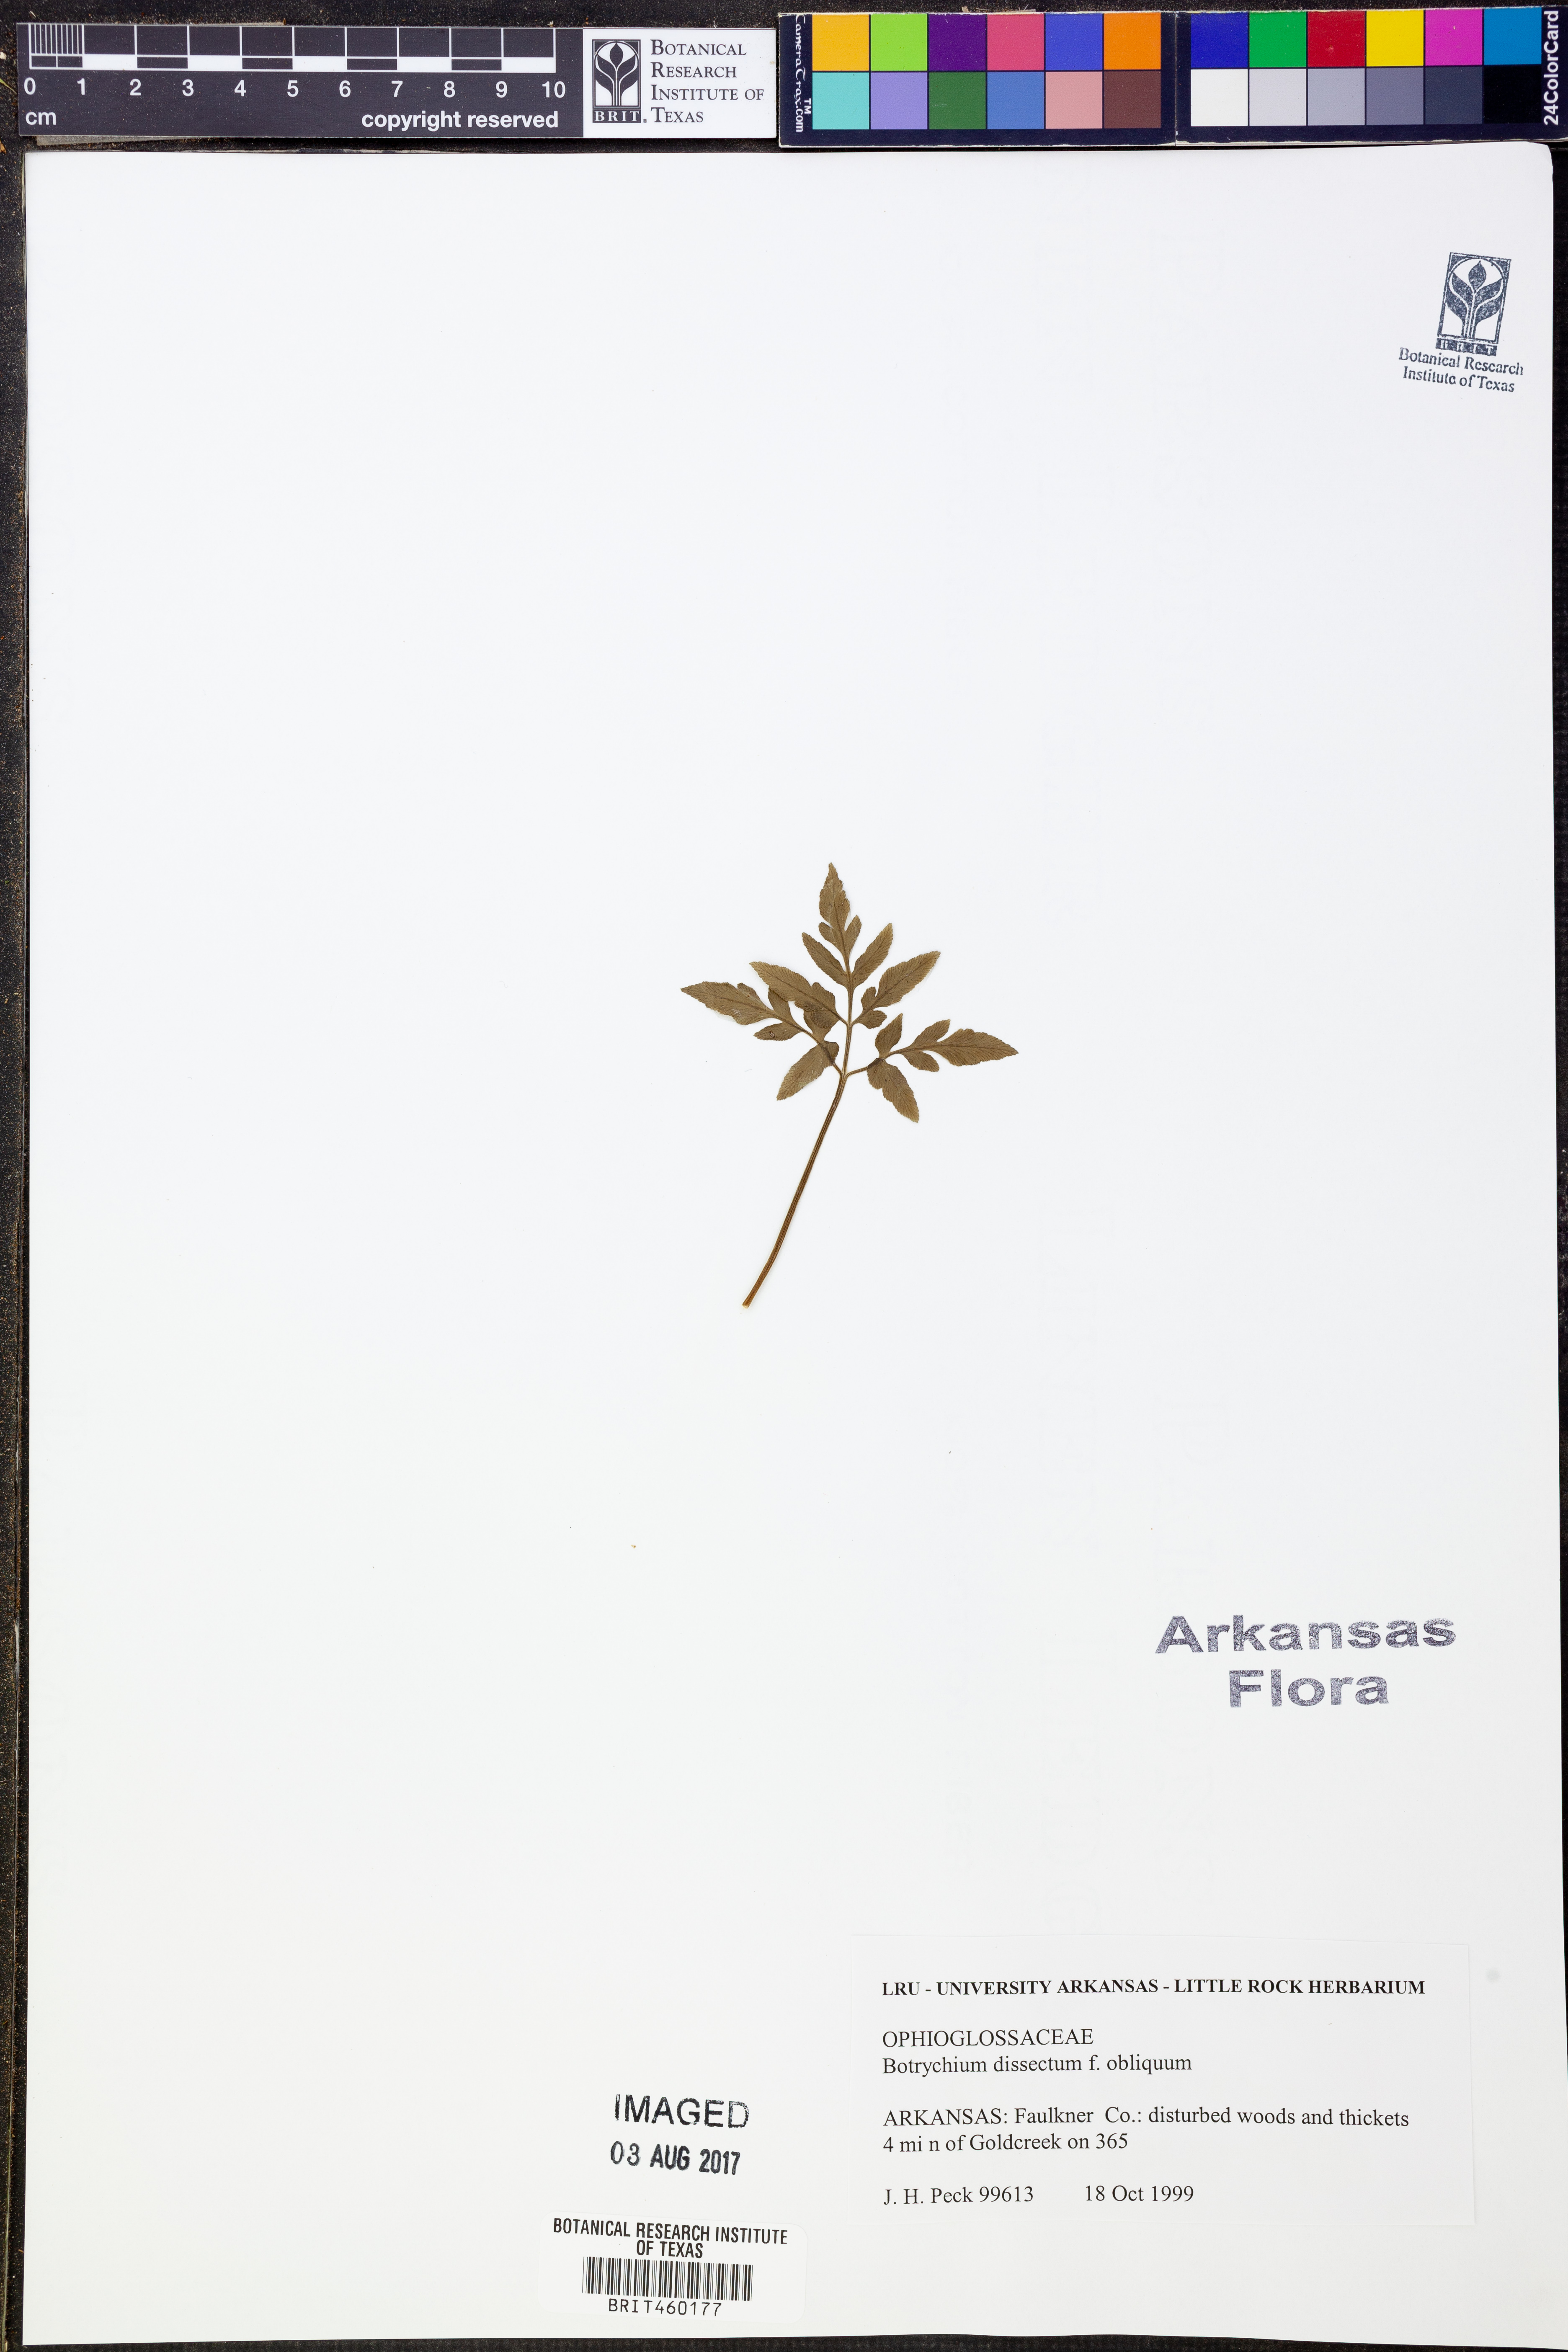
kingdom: Plantae
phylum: Tracheophyta
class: Polypodiopsida
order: Ophioglossales
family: Ophioglossaceae
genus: Sceptridium
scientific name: Sceptridium dissectum
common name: Cut-leaved grapefern
